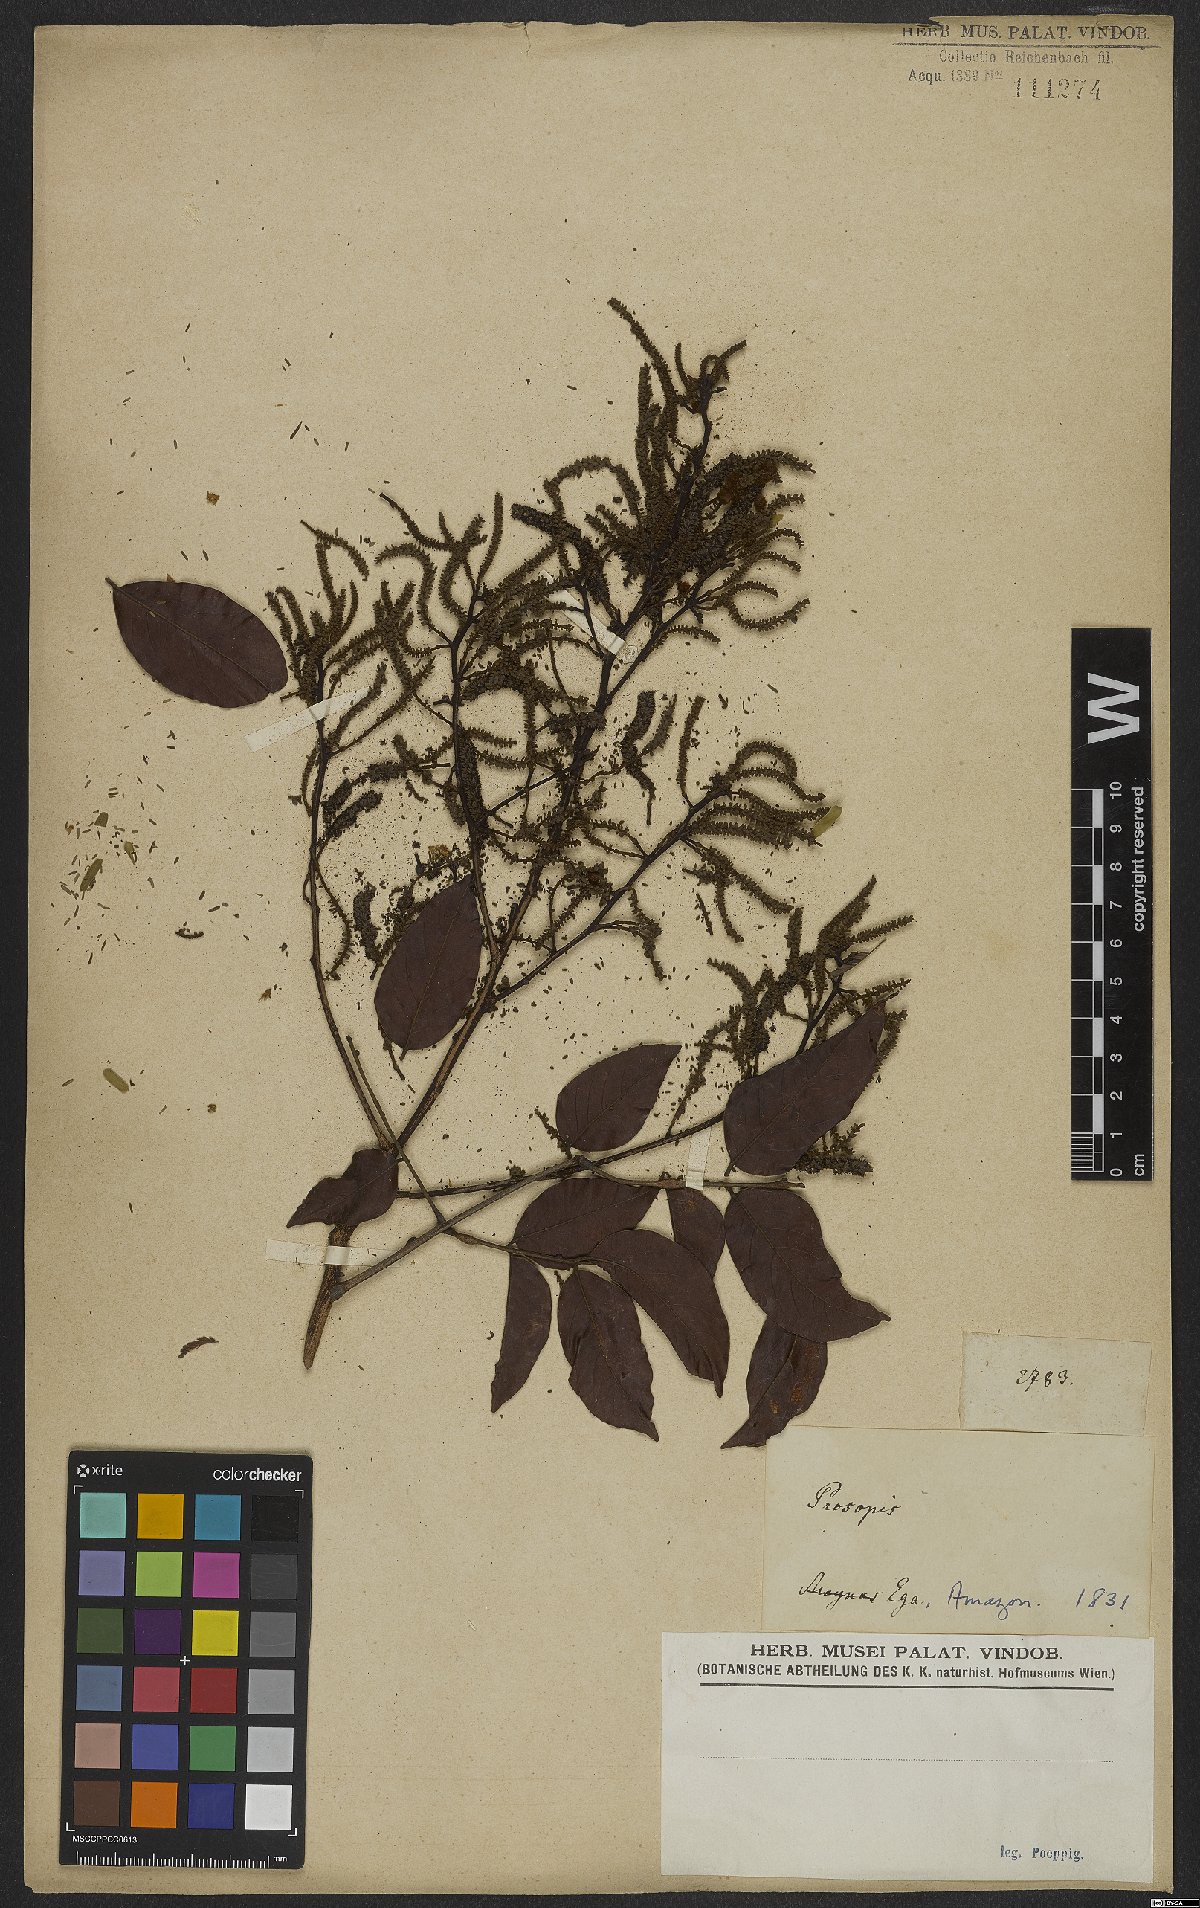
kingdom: Plantae
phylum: Tracheophyta
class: Magnoliopsida
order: Fabales
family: Fabaceae
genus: Prosopis
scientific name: Prosopis
